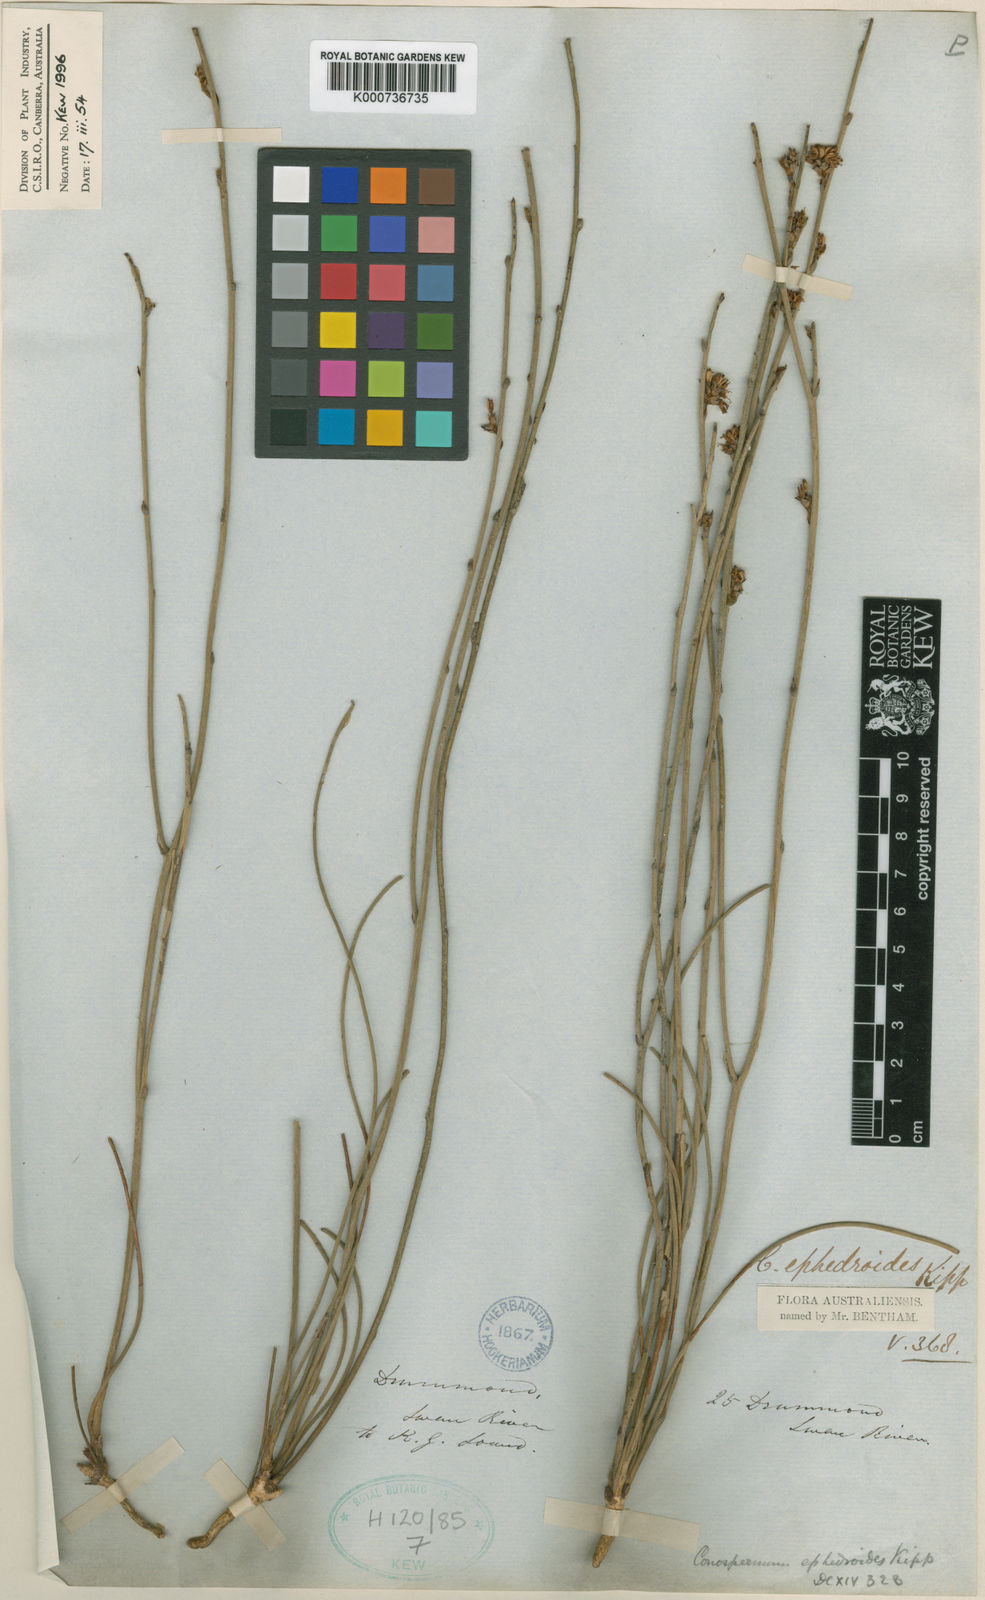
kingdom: Plantae
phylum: Tracheophyta
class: Magnoliopsida
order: Proteales
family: Proteaceae
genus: Conospermum
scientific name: Conospermum ephedroides
